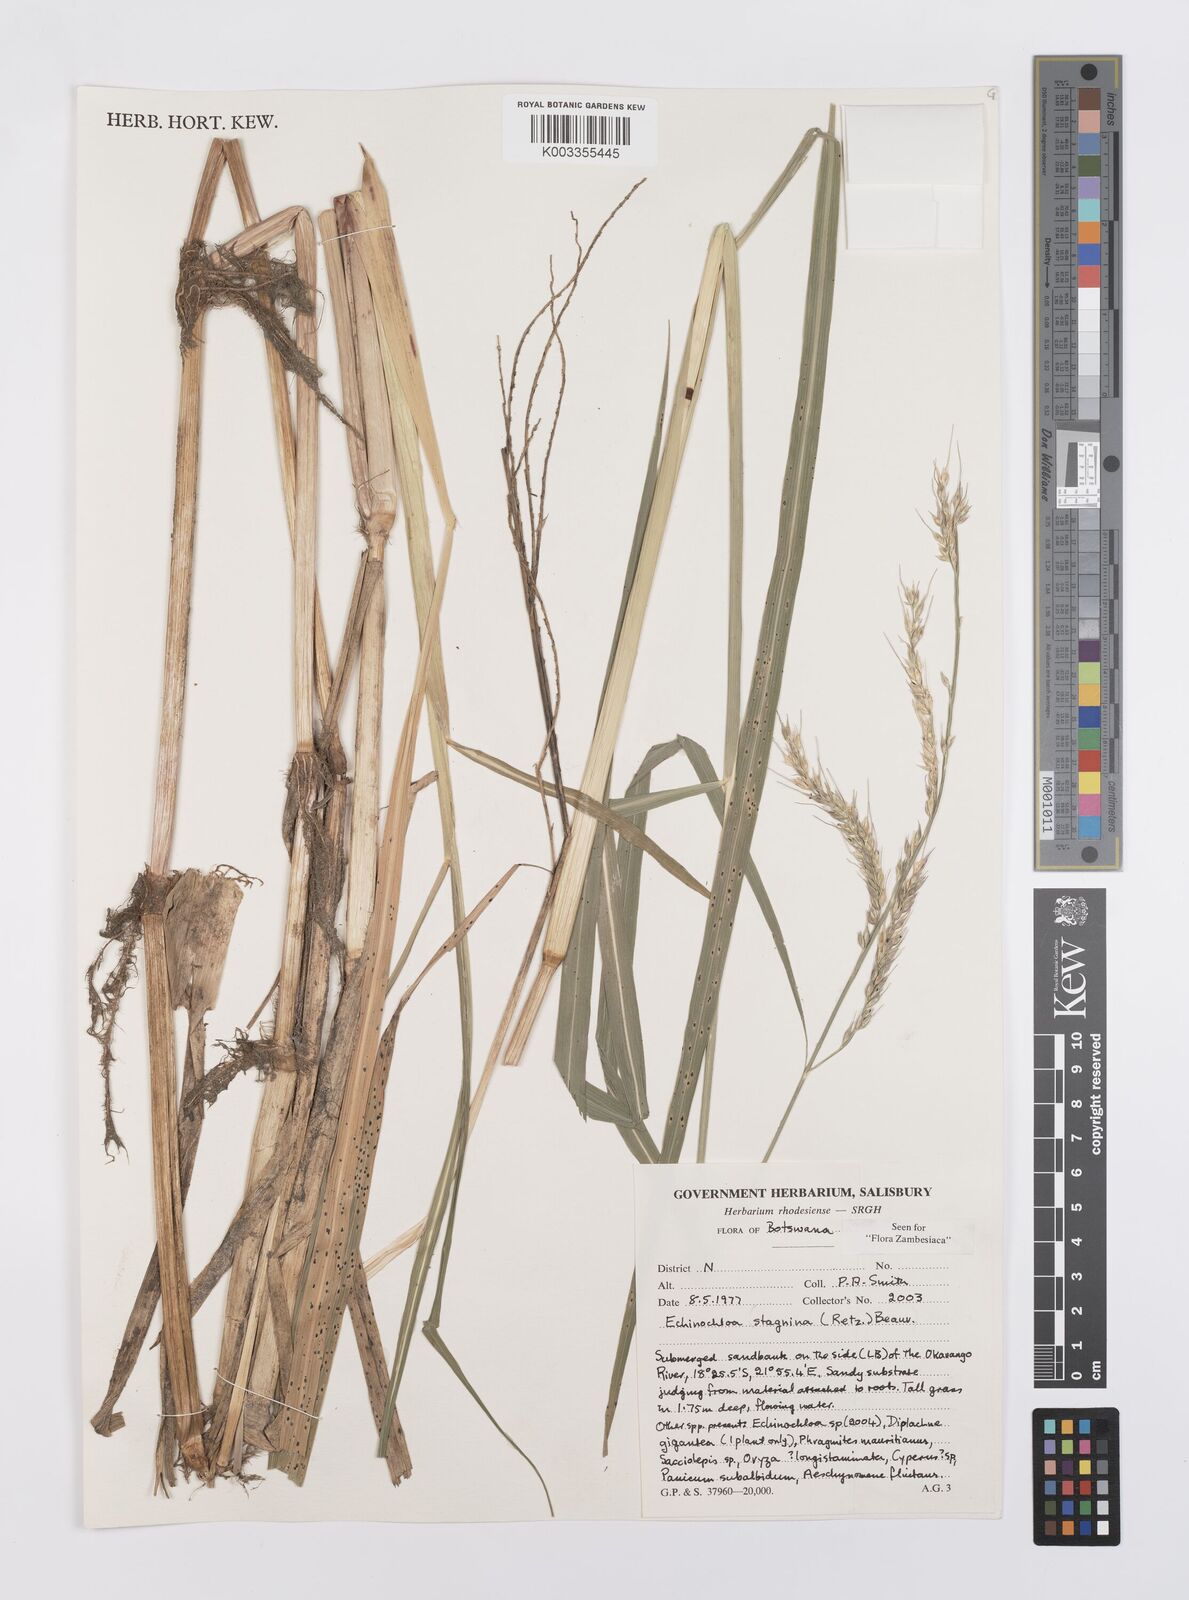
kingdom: Plantae
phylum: Tracheophyta
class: Liliopsida
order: Poales
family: Poaceae
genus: Echinochloa
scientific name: Echinochloa stagnina
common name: Burgu grass
